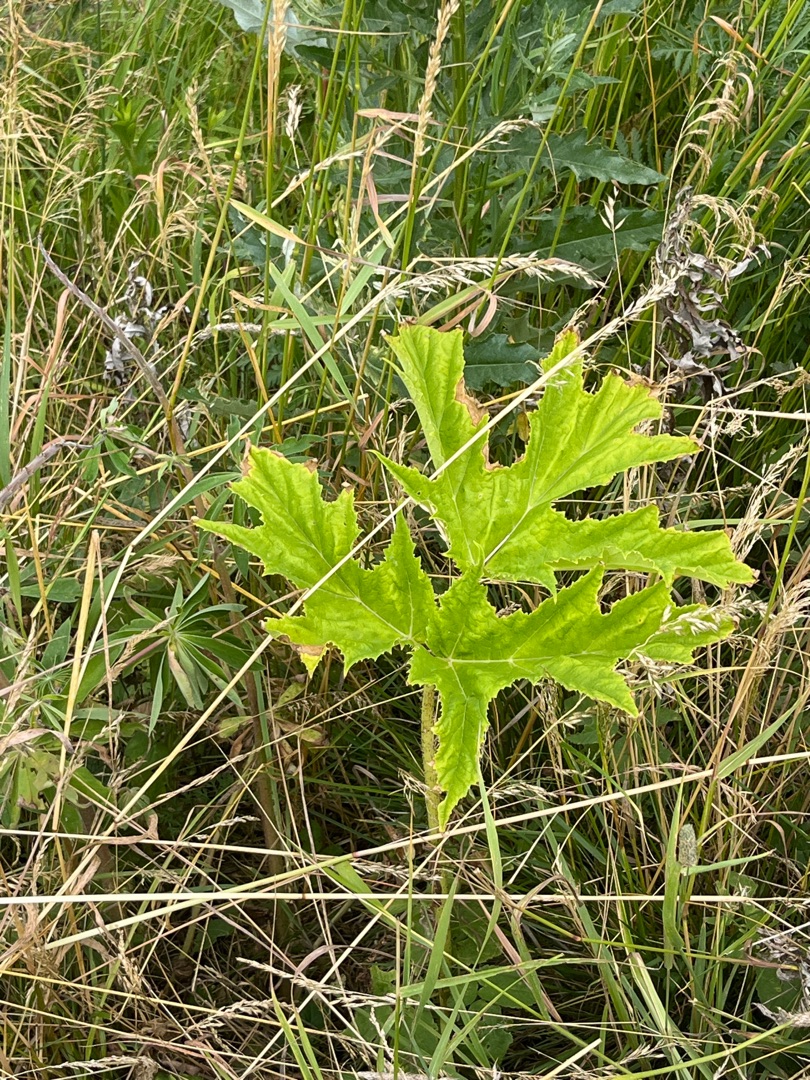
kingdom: Plantae
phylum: Tracheophyta
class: Magnoliopsida
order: Apiales
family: Apiaceae
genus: Heracleum
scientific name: Heracleum mantegazzianum
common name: Kæmpe-bjørneklo
